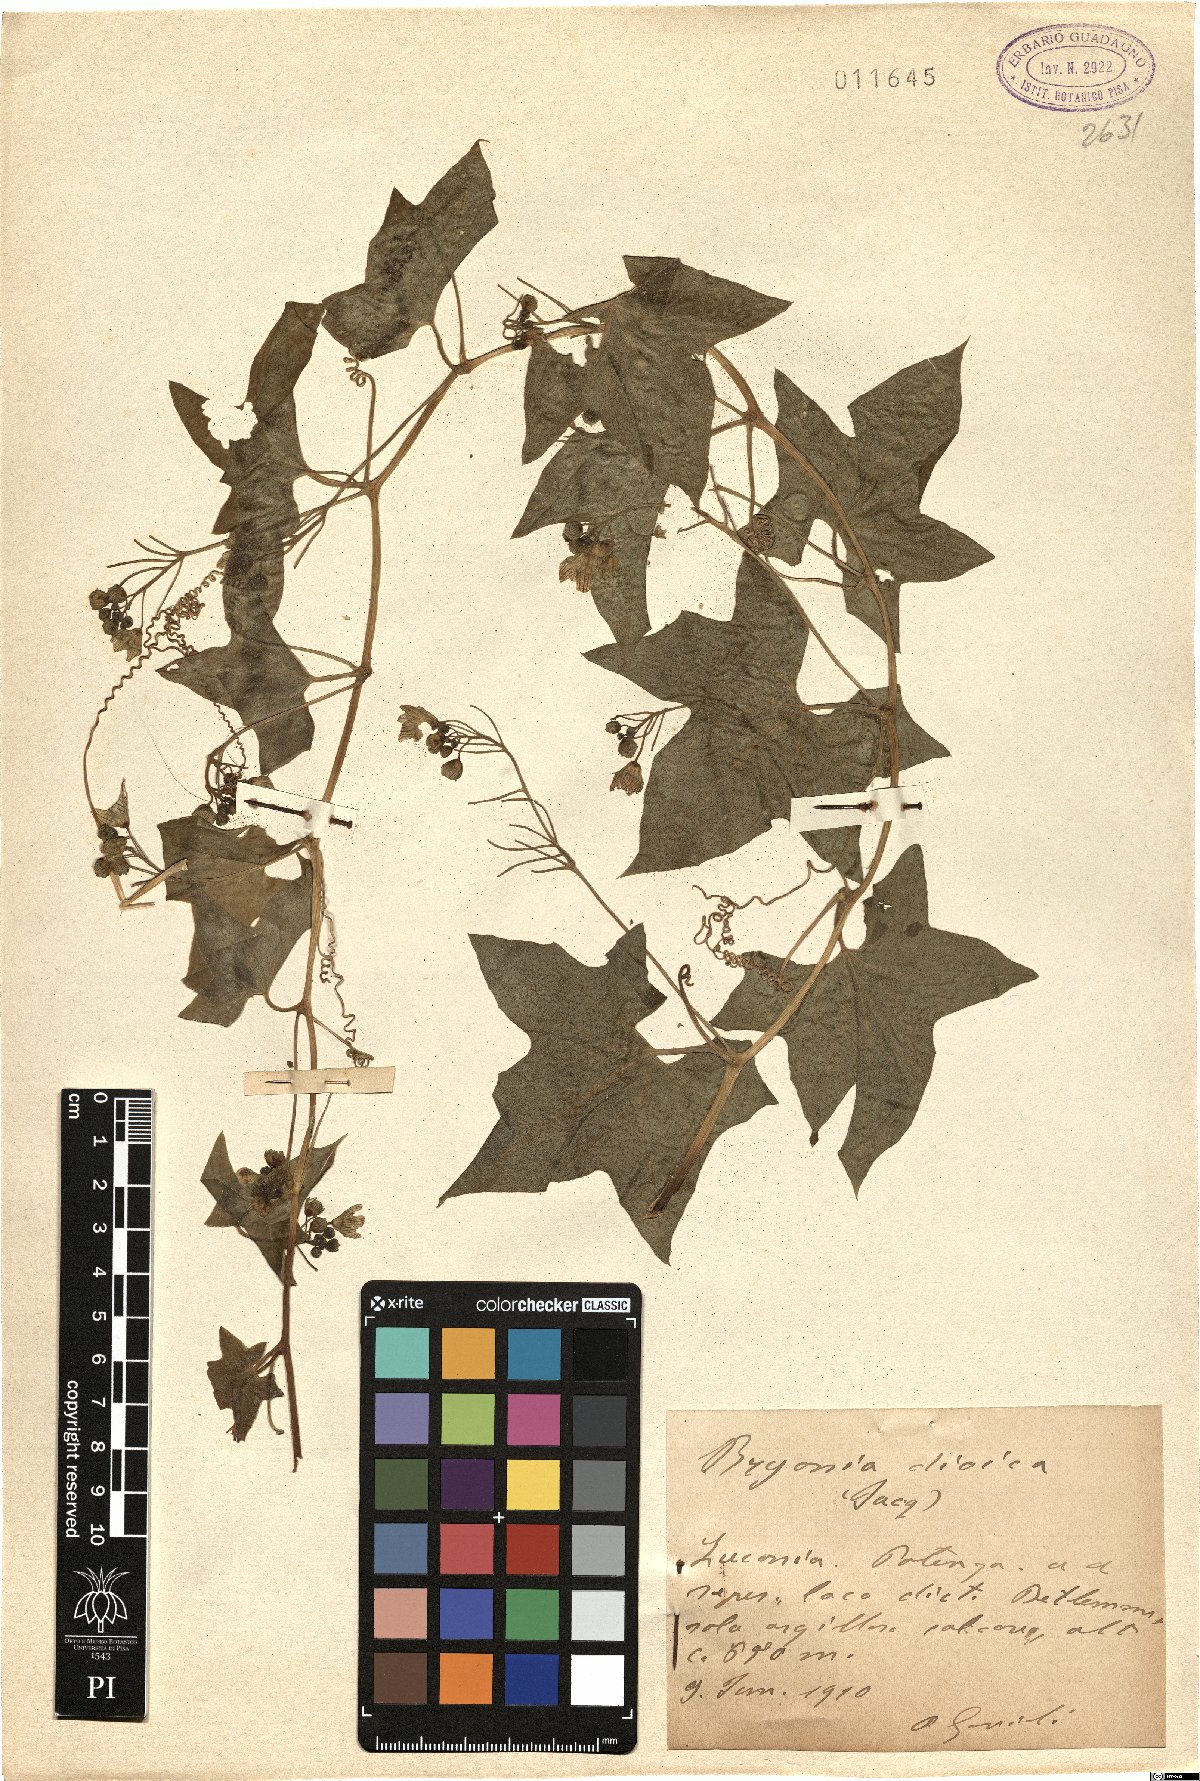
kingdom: Plantae
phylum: Tracheophyta
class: Magnoliopsida
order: Cucurbitales
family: Cucurbitaceae
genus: Bryonia
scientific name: Bryonia dioica
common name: White bryony
